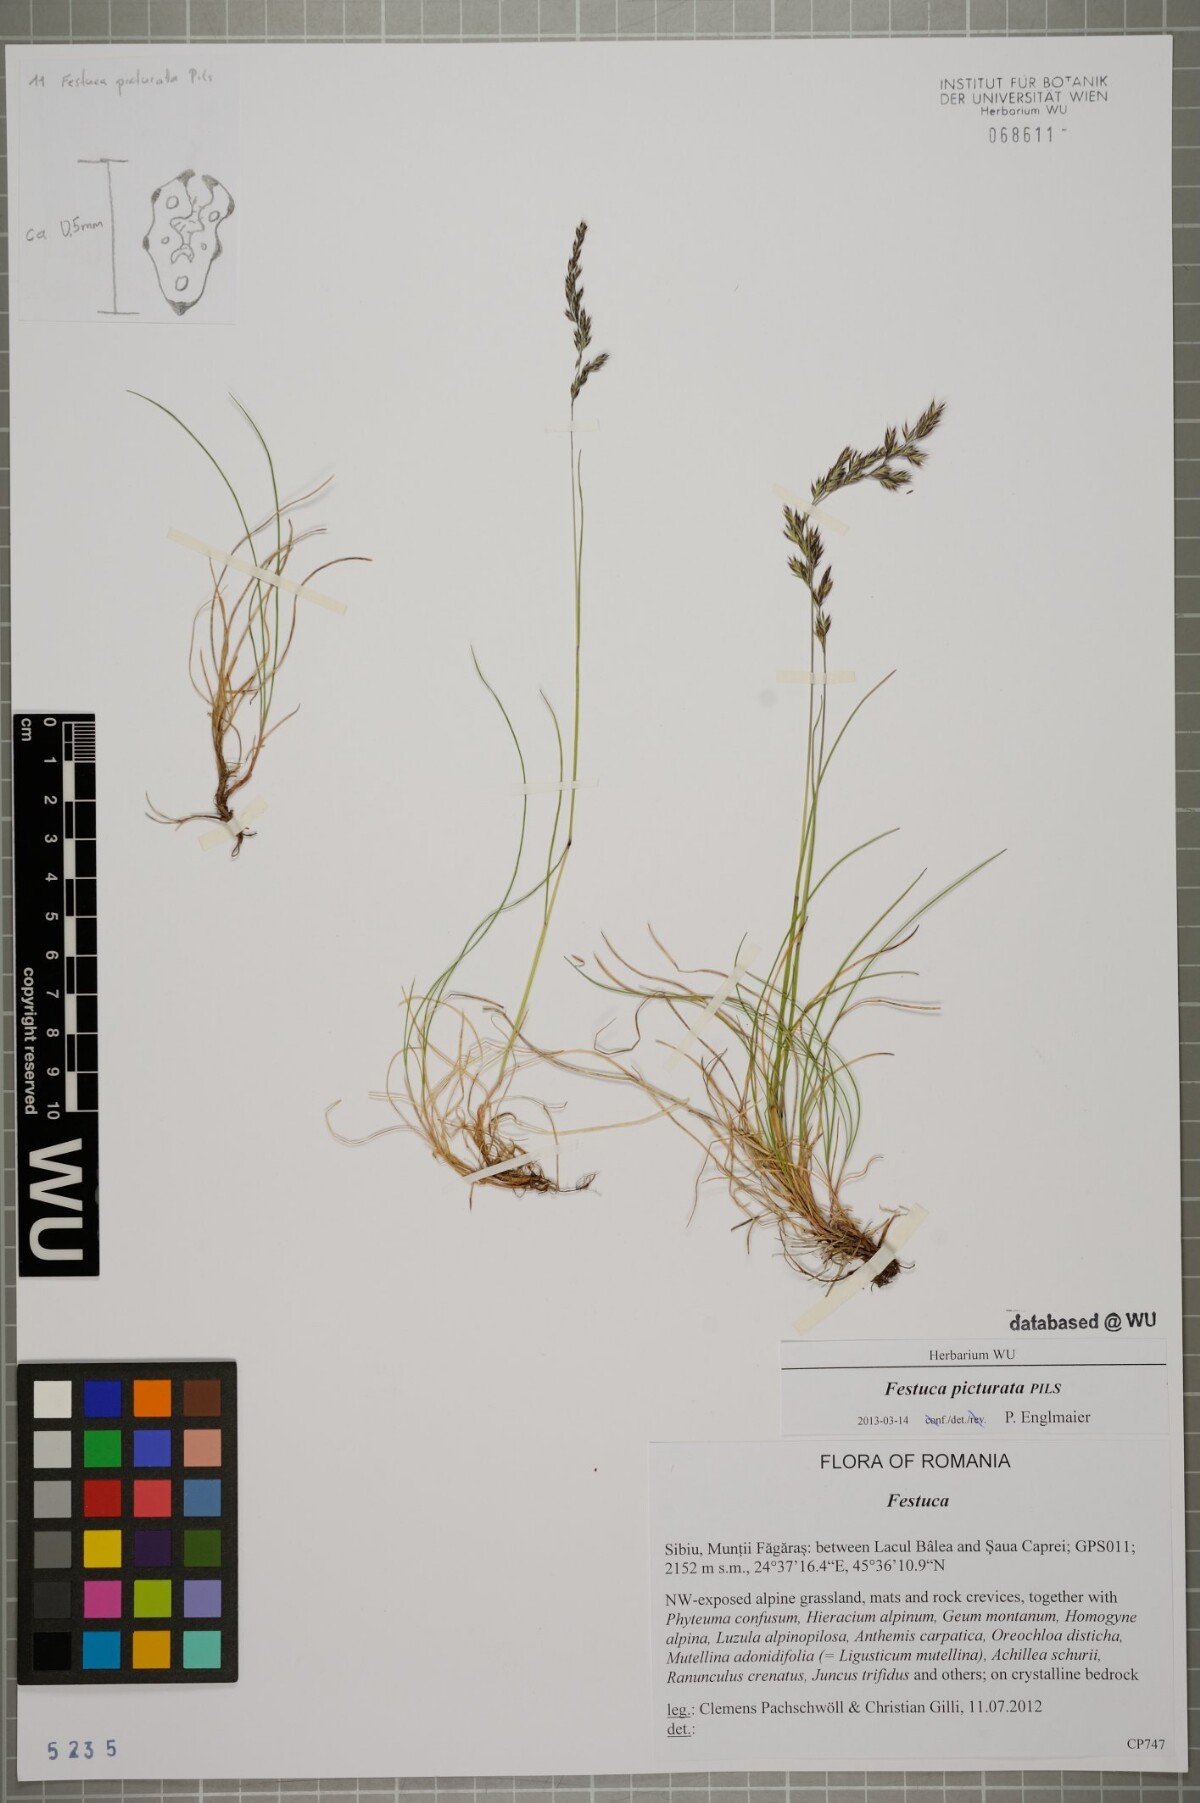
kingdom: Plantae
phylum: Tracheophyta
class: Liliopsida
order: Poales
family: Poaceae
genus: Festuca
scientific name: Festuca picturata
